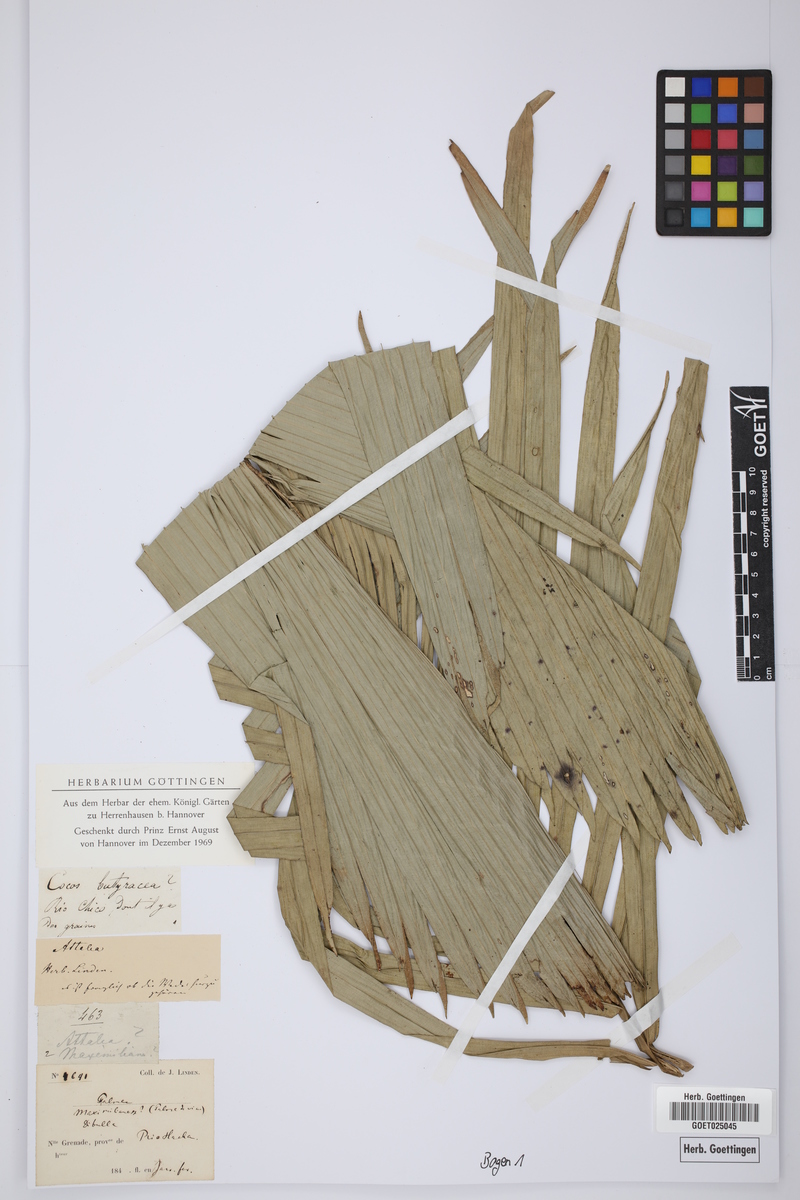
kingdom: Plantae
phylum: Tracheophyta
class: Liliopsida
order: Arecales
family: Arecaceae
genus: Cocos
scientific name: Cocos butyracea
